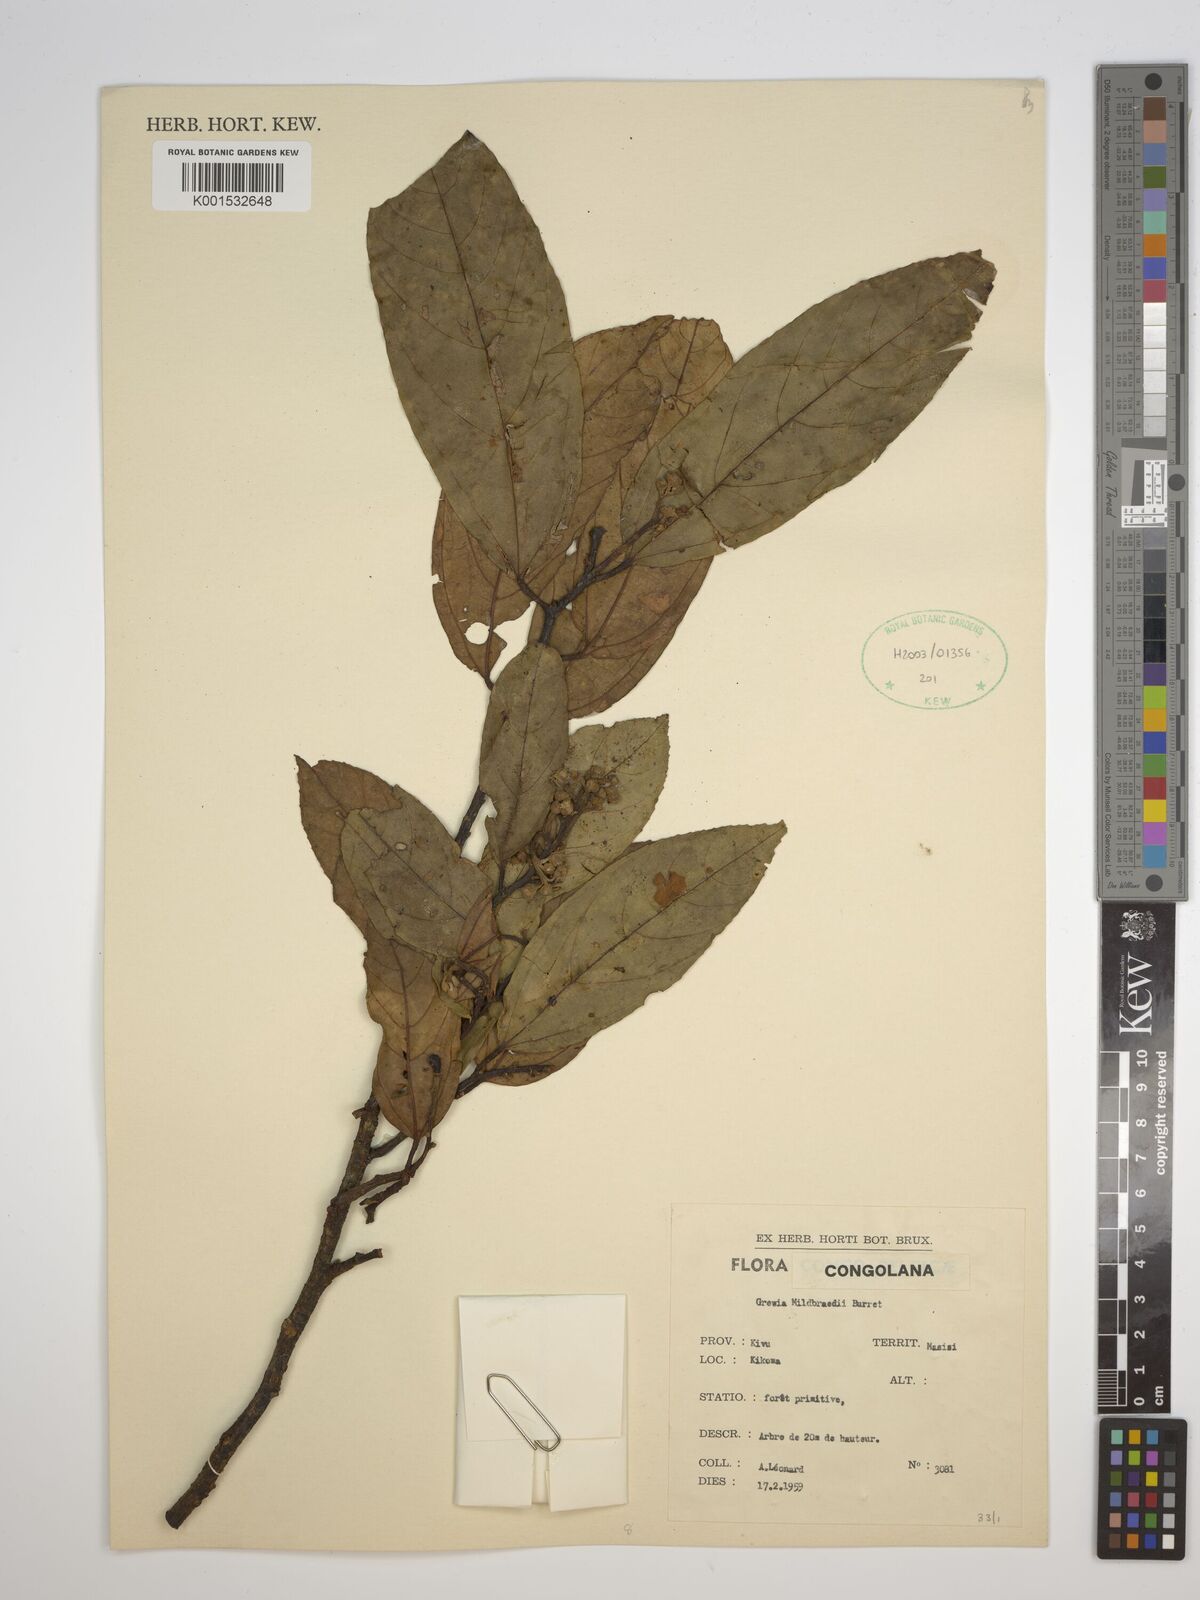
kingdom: Plantae
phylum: Tracheophyta
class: Magnoliopsida
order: Malvales
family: Malvaceae
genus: Microcos
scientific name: Microcos mildbraedii
